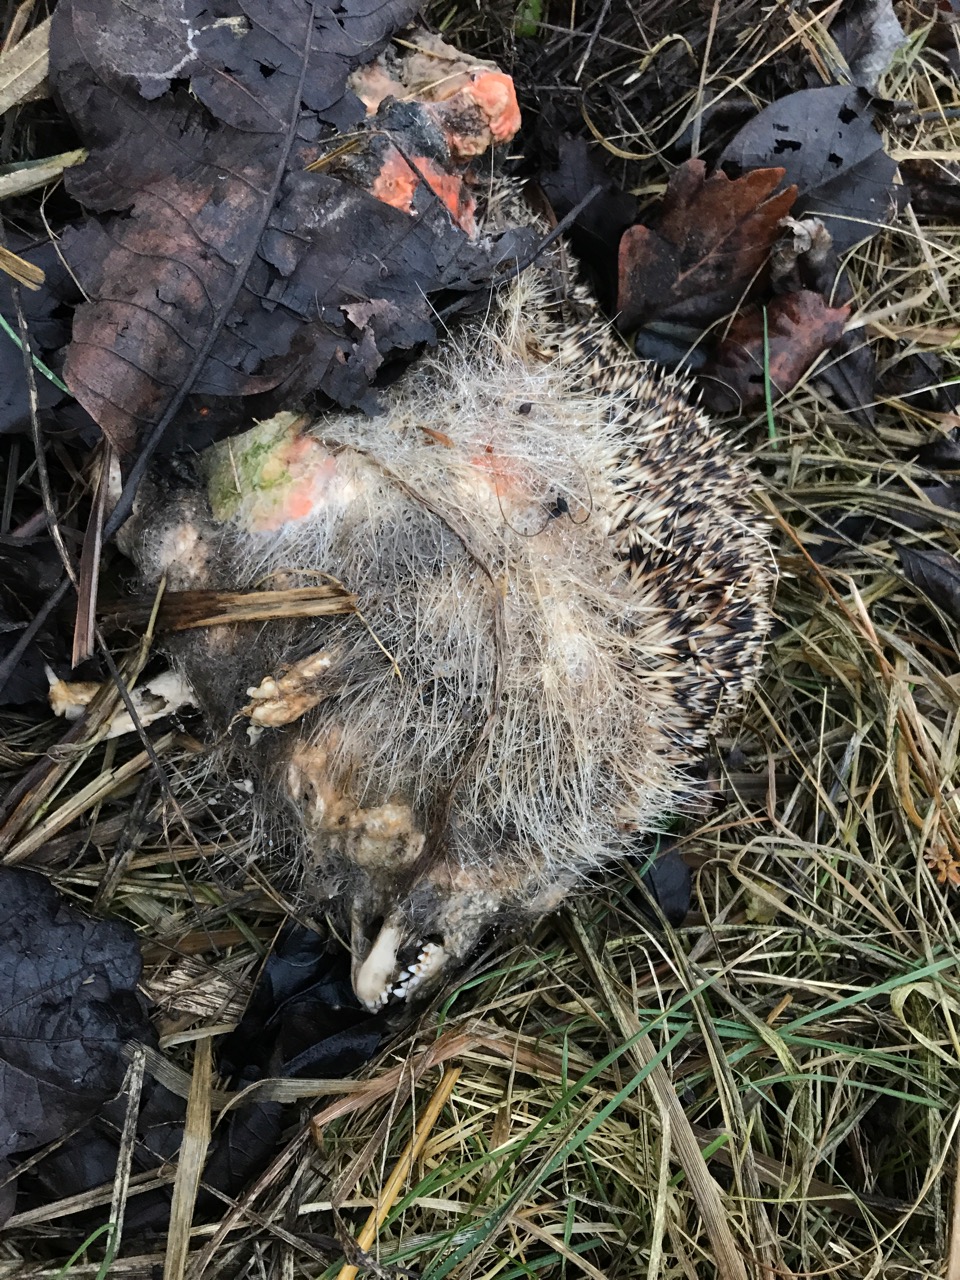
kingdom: Animalia
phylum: Chordata
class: Mammalia
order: Erinaceomorpha
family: Erinaceidae
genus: Erinaceus
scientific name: Erinaceus
